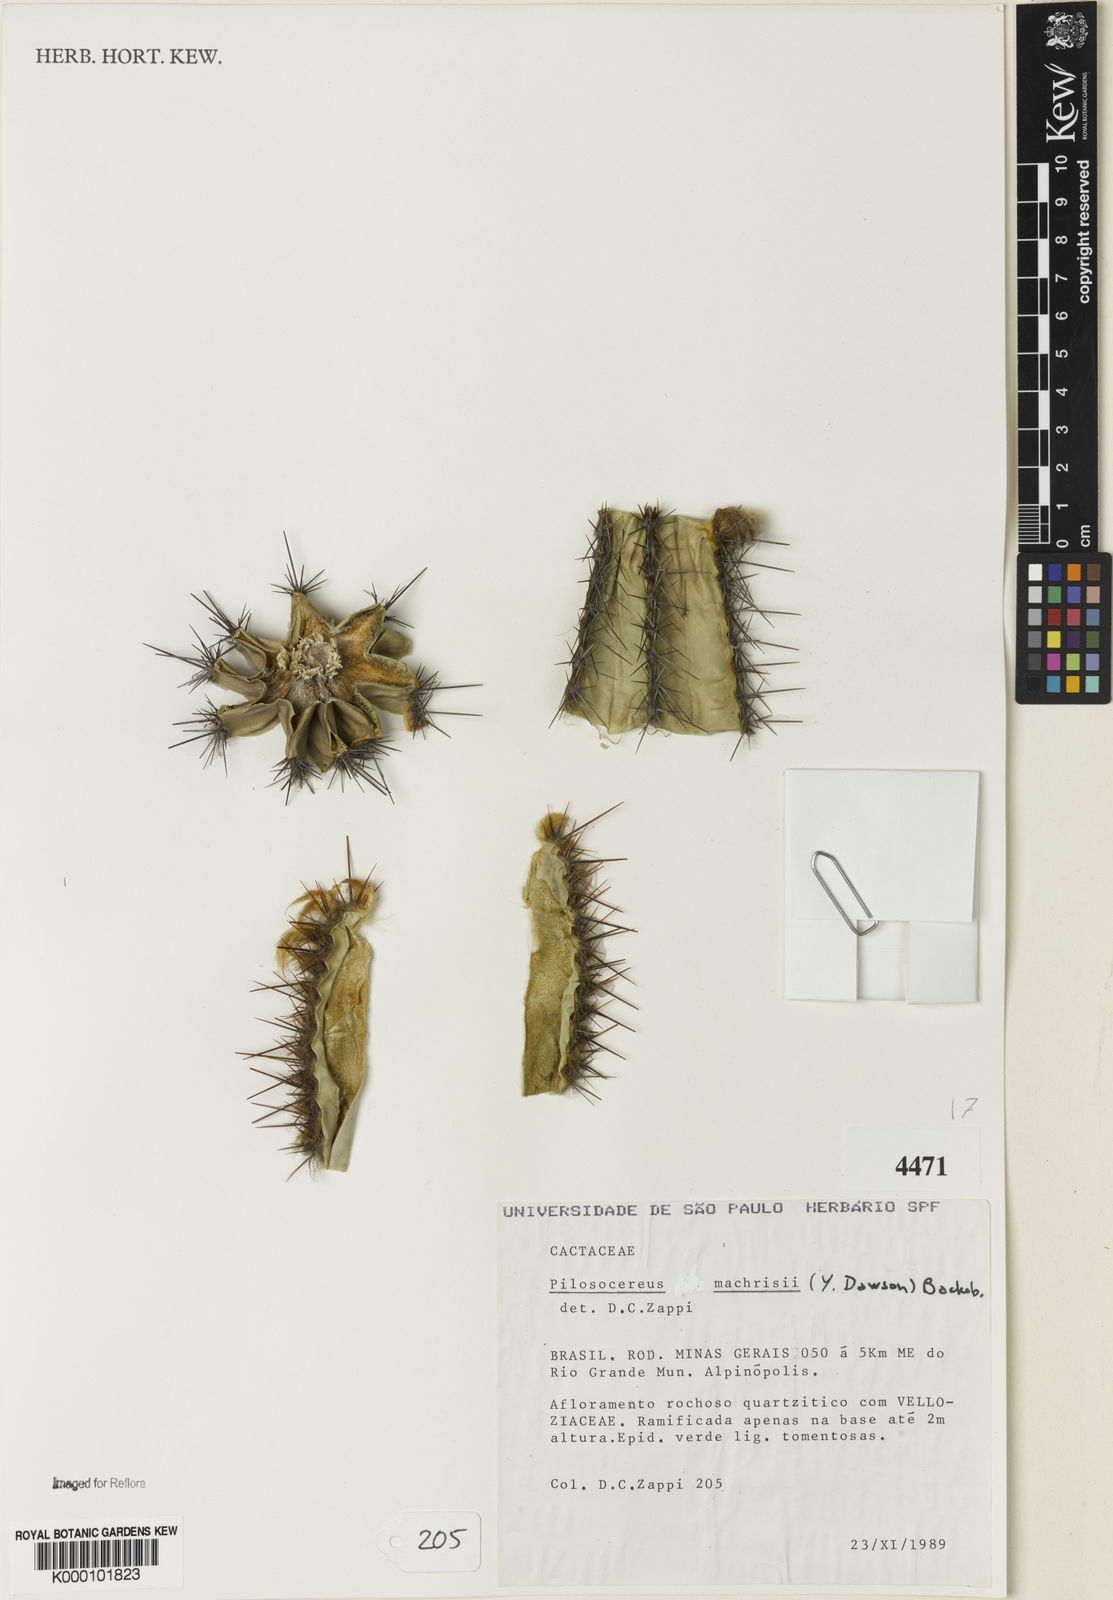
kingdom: Plantae
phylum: Tracheophyta
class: Magnoliopsida
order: Caryophyllales
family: Cactaceae
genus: Pilosocereus
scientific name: Pilosocereus machrisii
